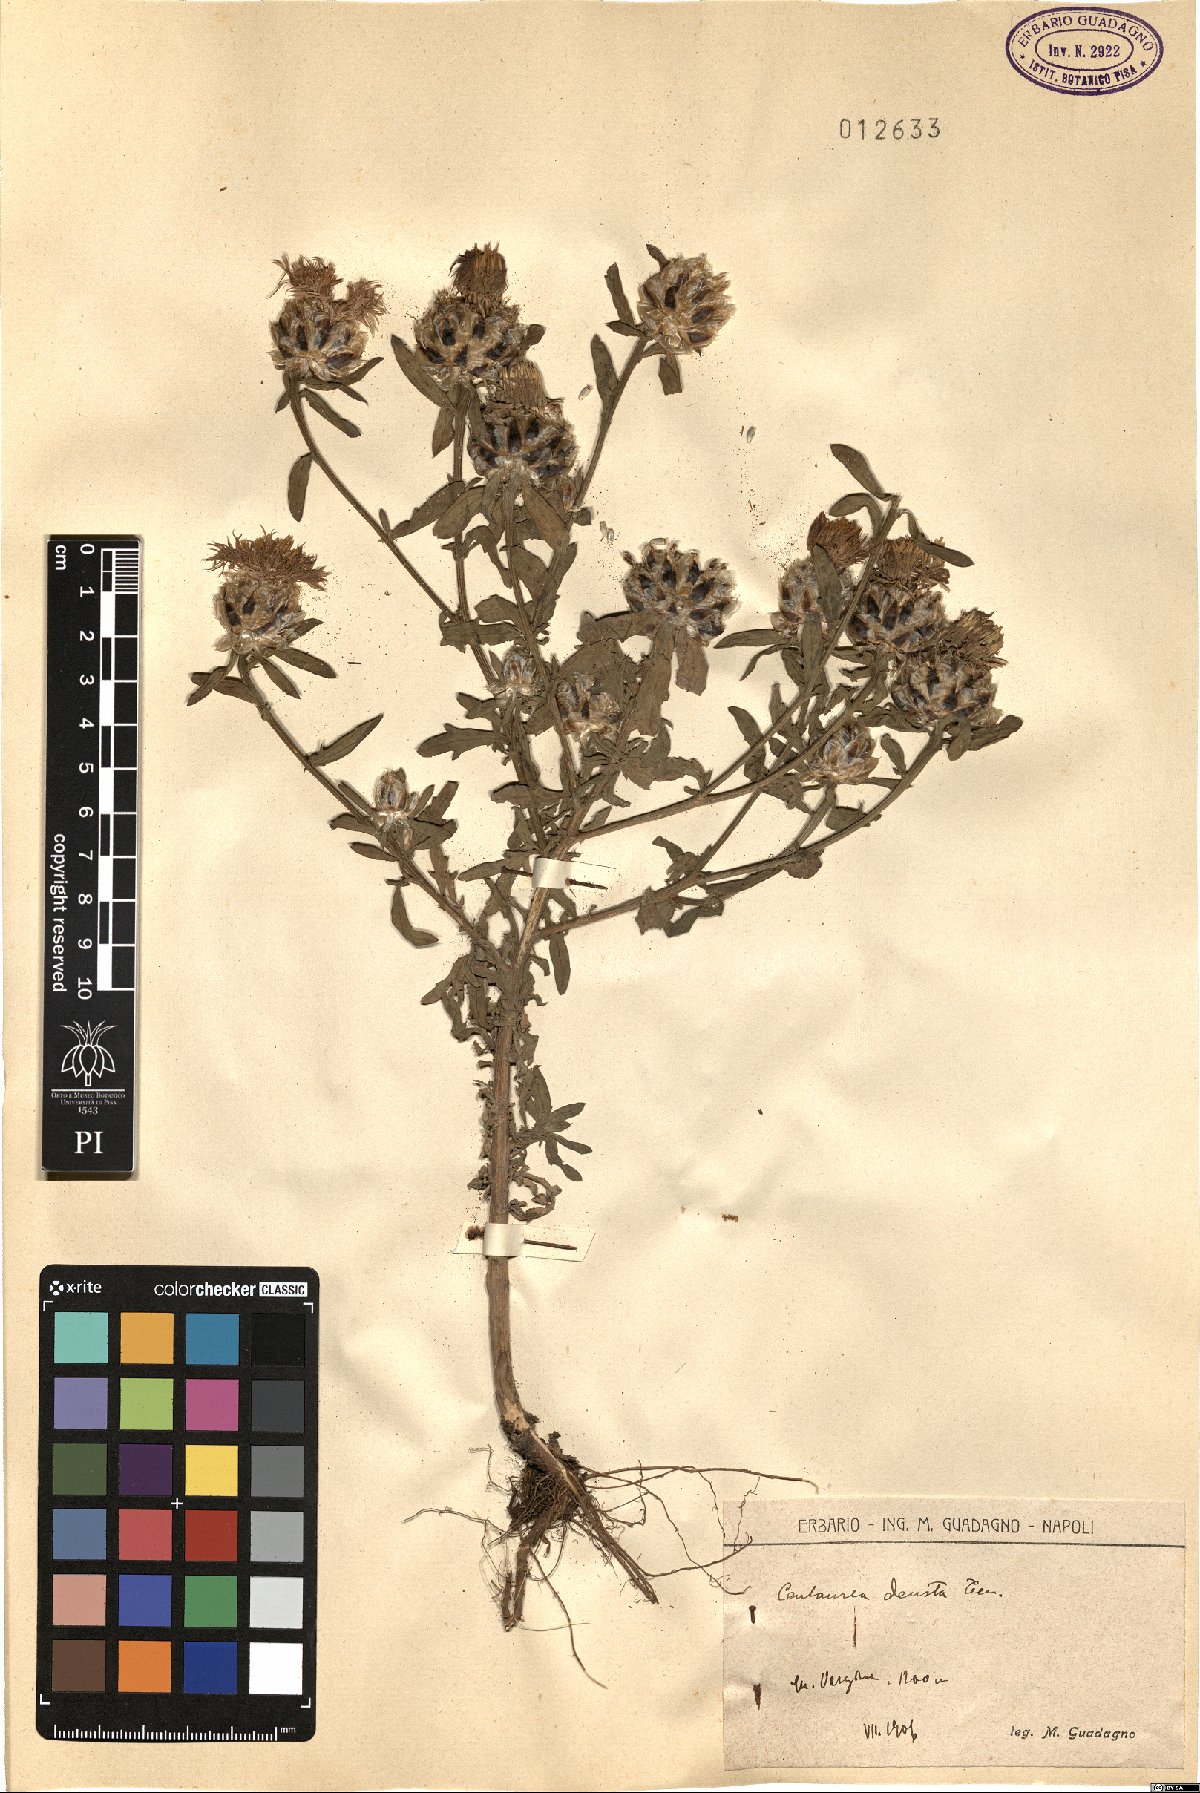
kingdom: Plantae
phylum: Tracheophyta
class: Magnoliopsida
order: Asterales
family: Asteraceae
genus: Centaurea
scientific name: Centaurea deusta
